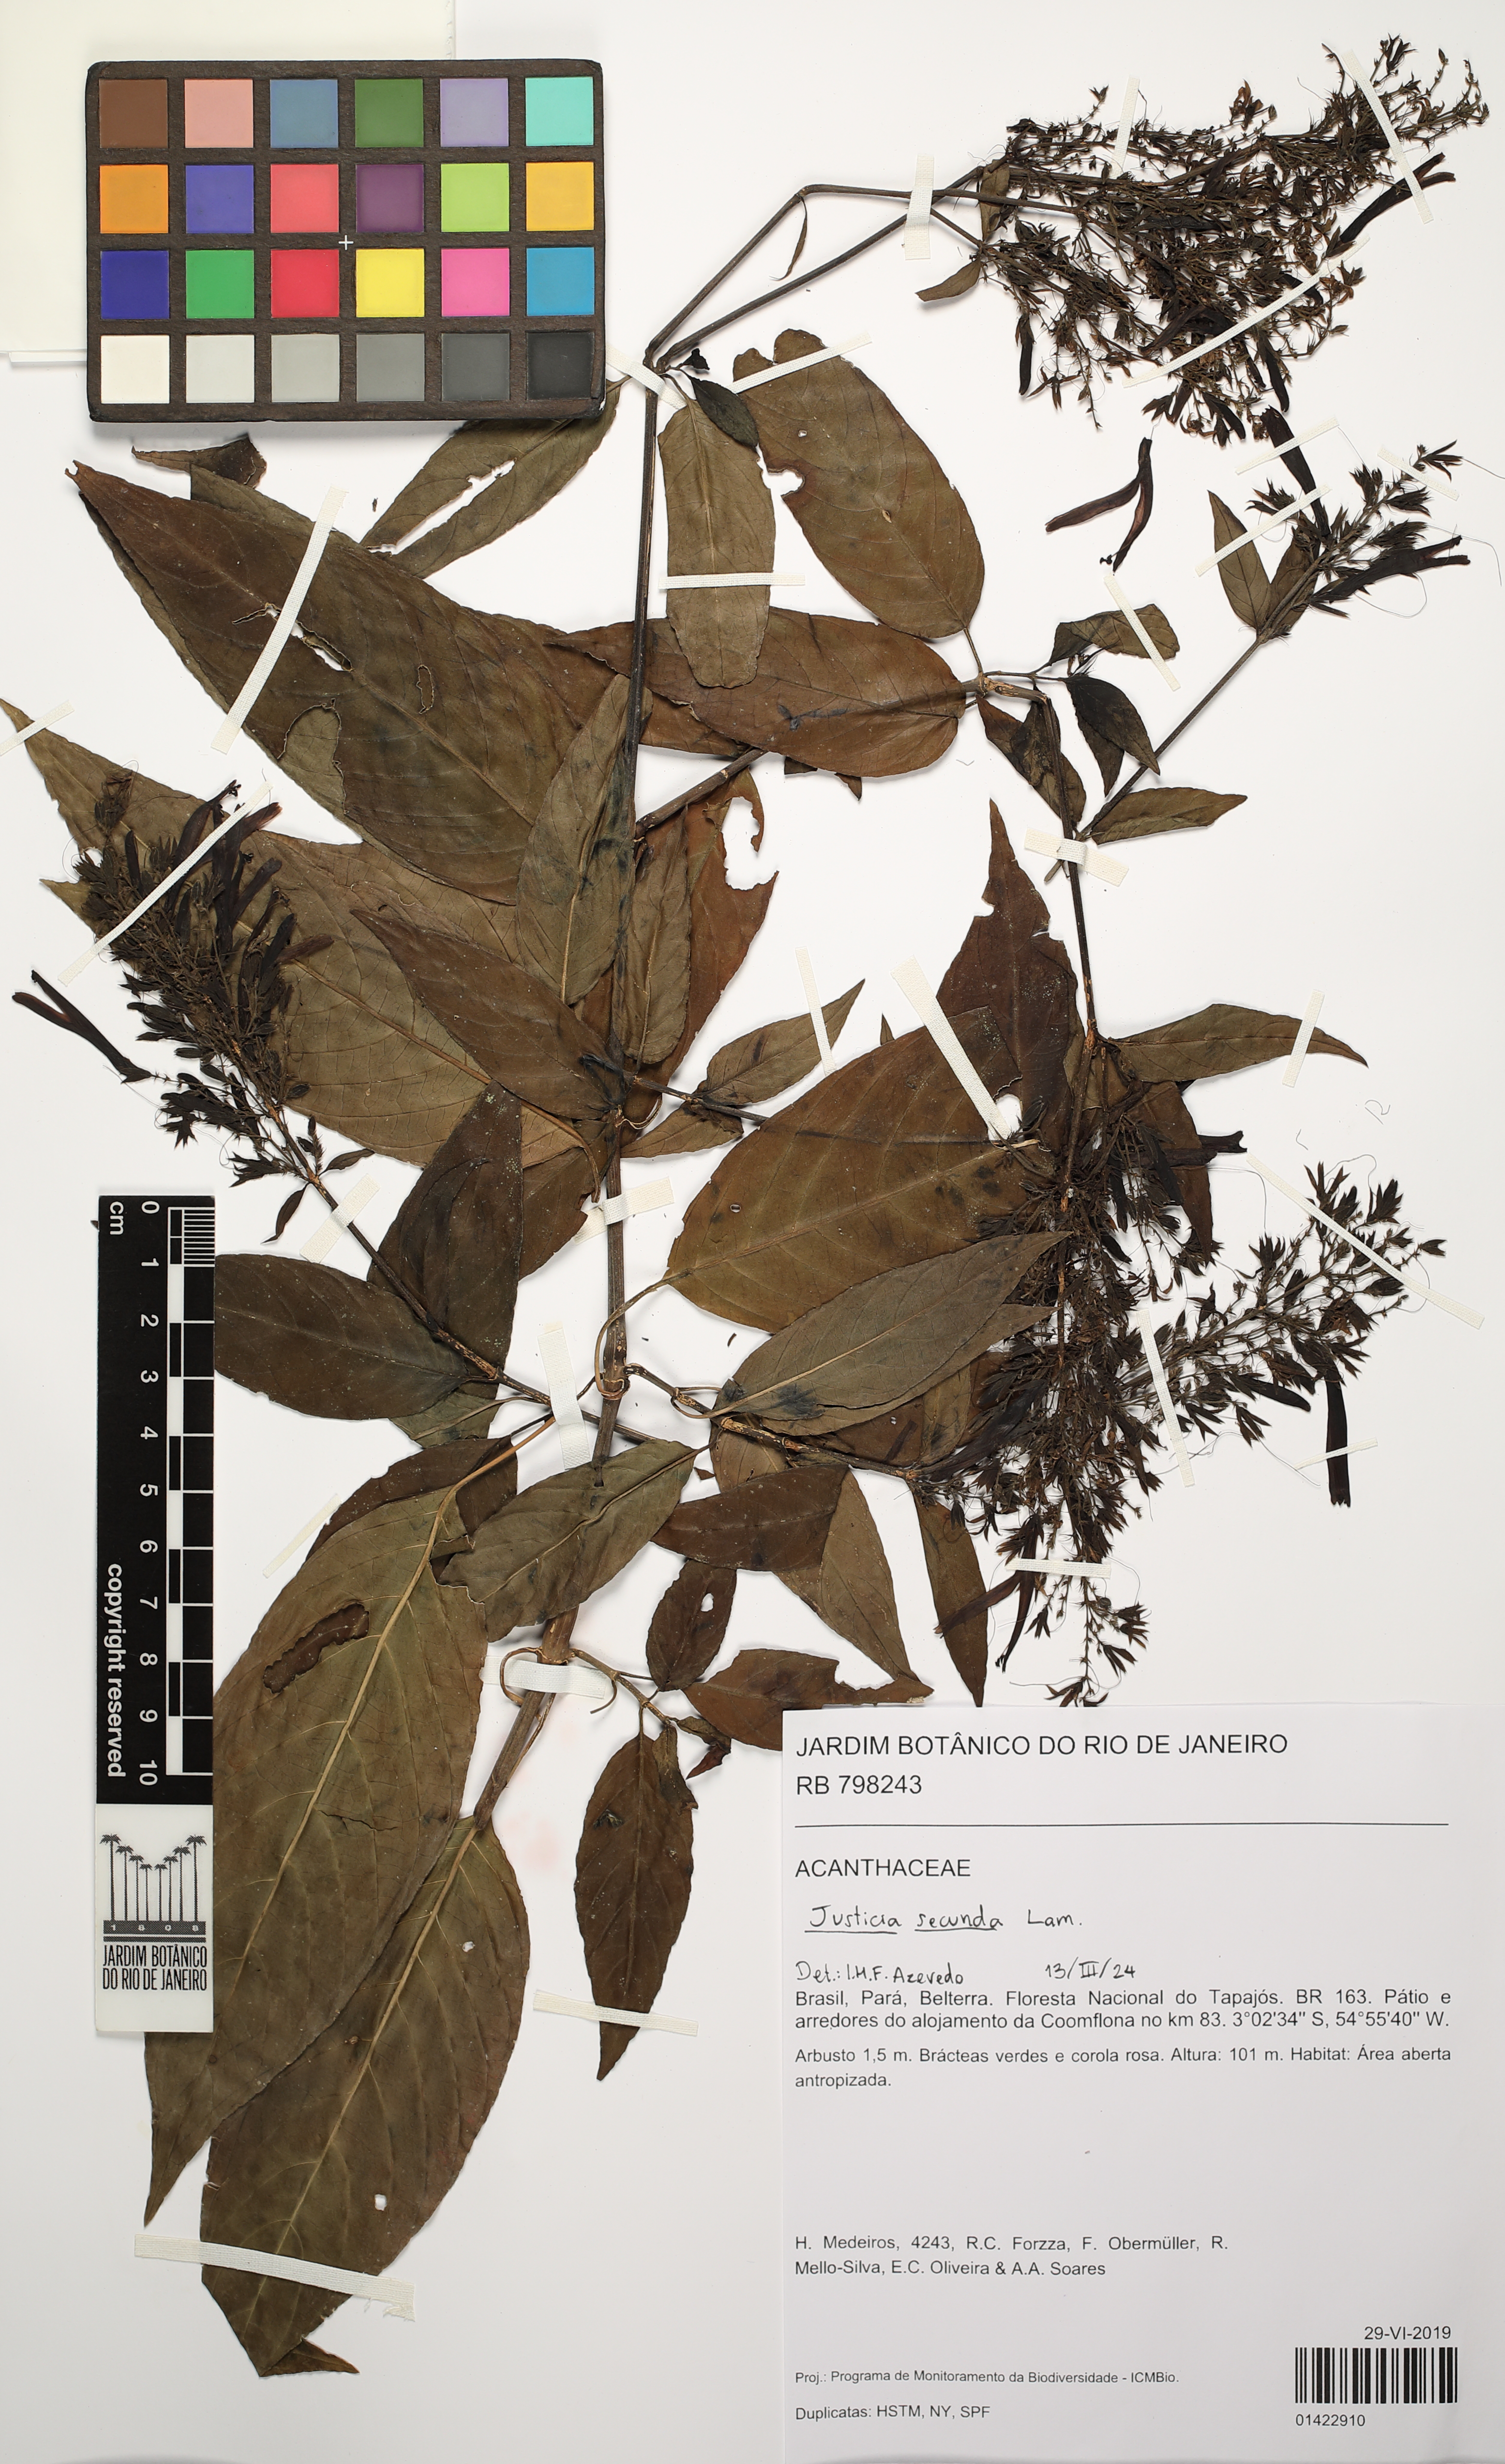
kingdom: Plantae
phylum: Tracheophyta
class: Magnoliopsida
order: Lamiales
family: Acanthaceae
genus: Justicia
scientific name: Justicia secunda
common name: Blood root
